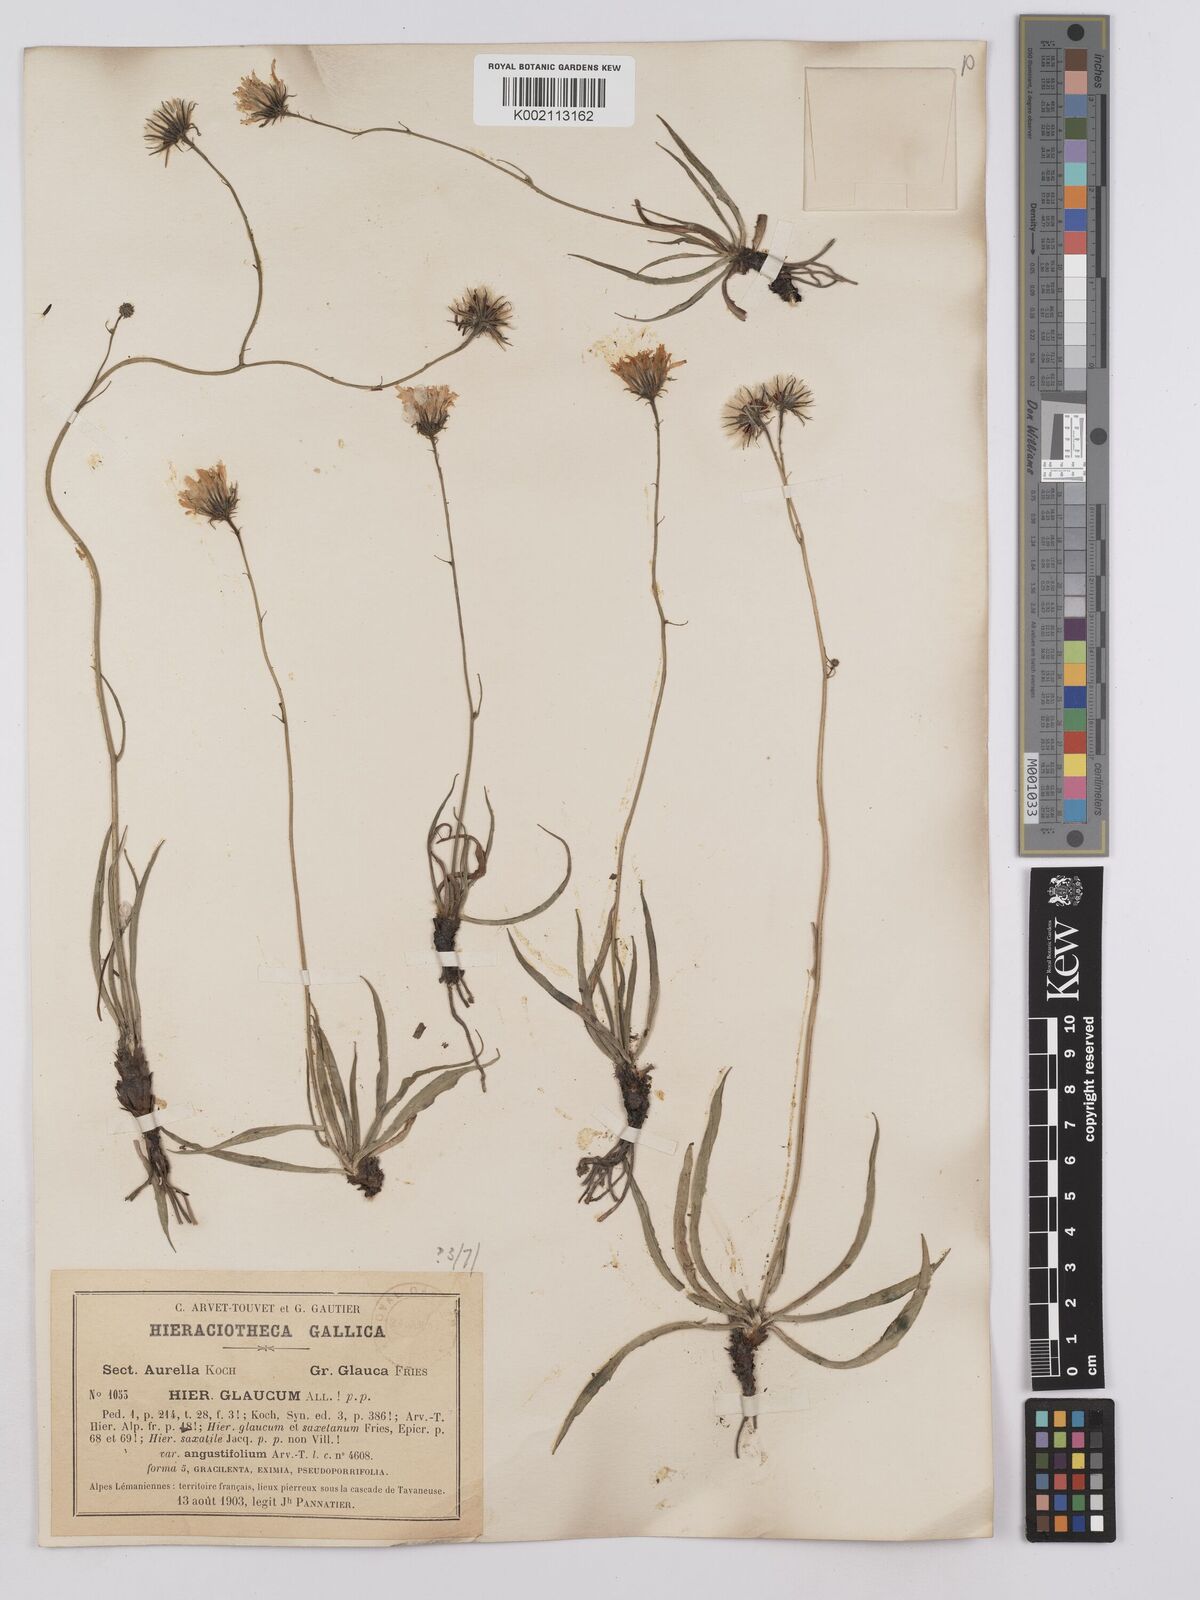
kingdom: Plantae
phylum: Tracheophyta
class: Magnoliopsida
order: Asterales
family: Asteraceae
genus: Hieracium
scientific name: Hieracium glaucum
